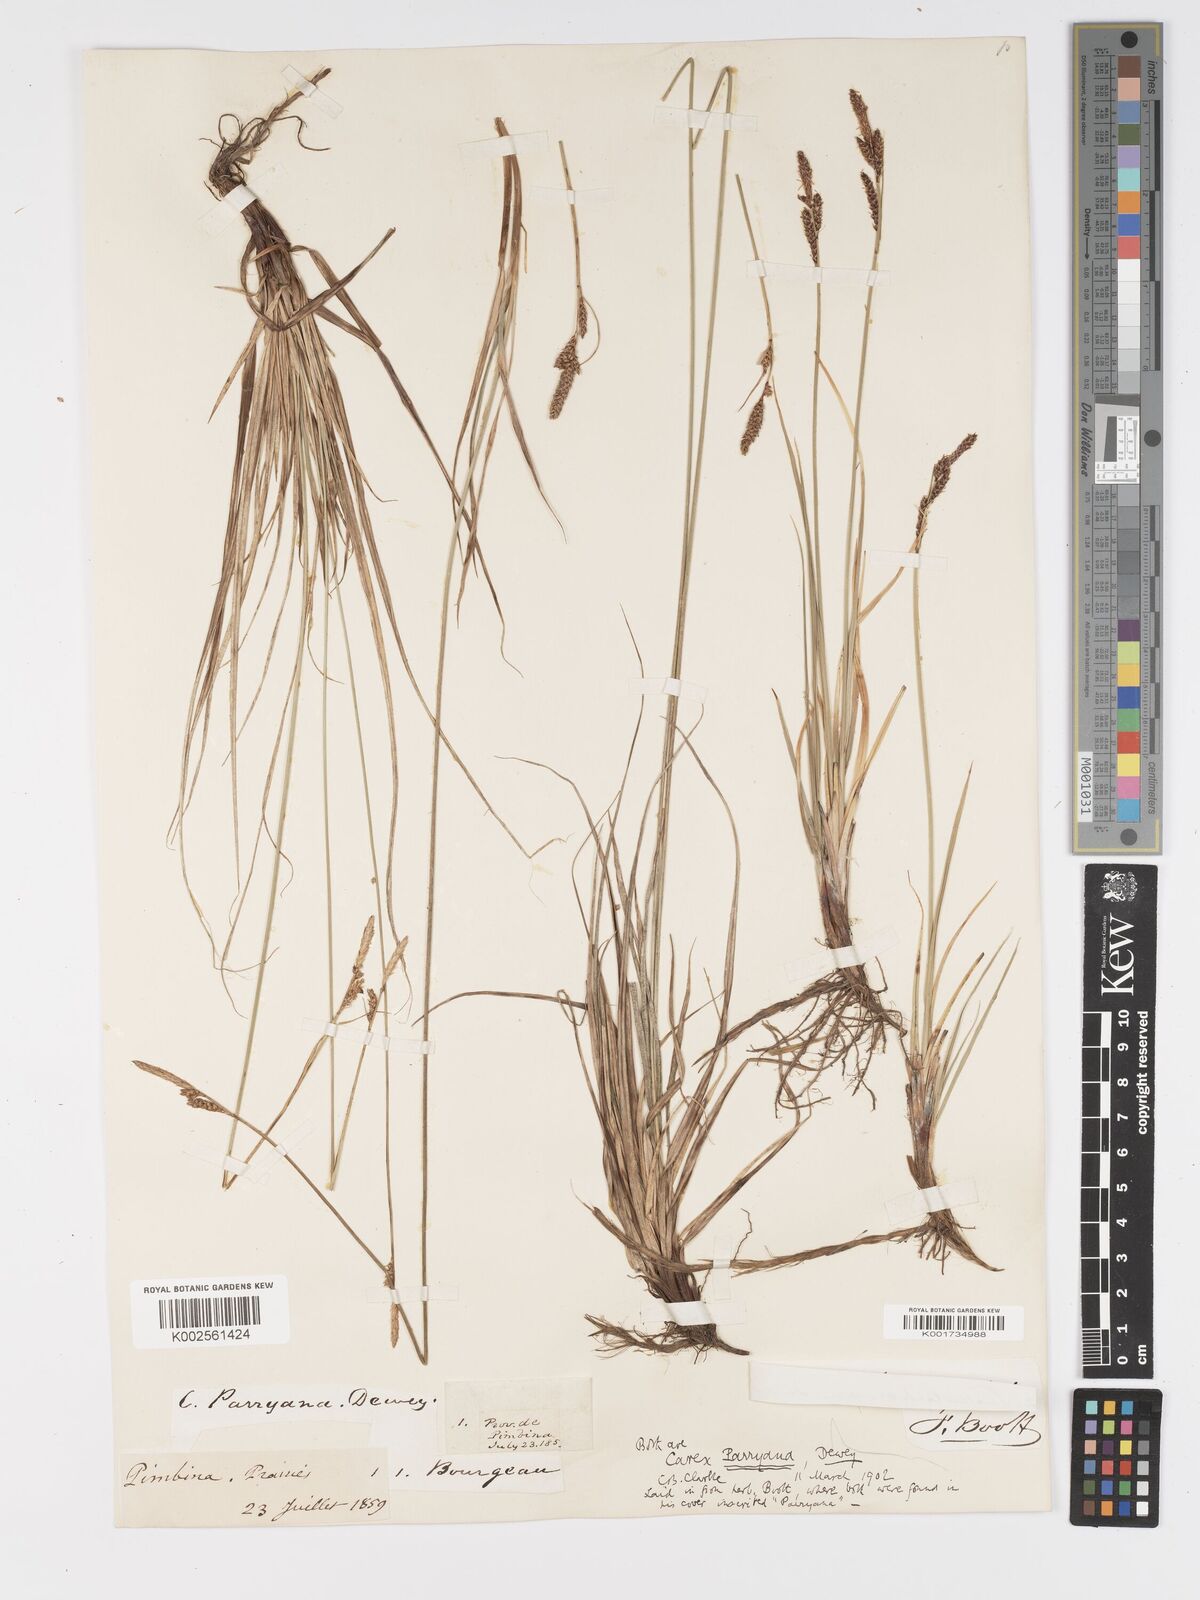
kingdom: Plantae
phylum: Tracheophyta
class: Liliopsida
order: Poales
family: Cyperaceae
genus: Carex
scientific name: Carex parryana
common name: Parry's sedge
